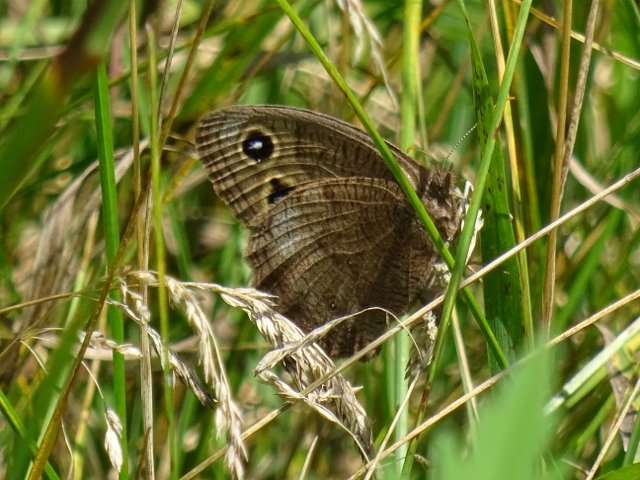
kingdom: Animalia
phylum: Arthropoda
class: Insecta
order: Lepidoptera
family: Nymphalidae
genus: Cercyonis
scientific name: Cercyonis pegala
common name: Common Wood-Nymph
